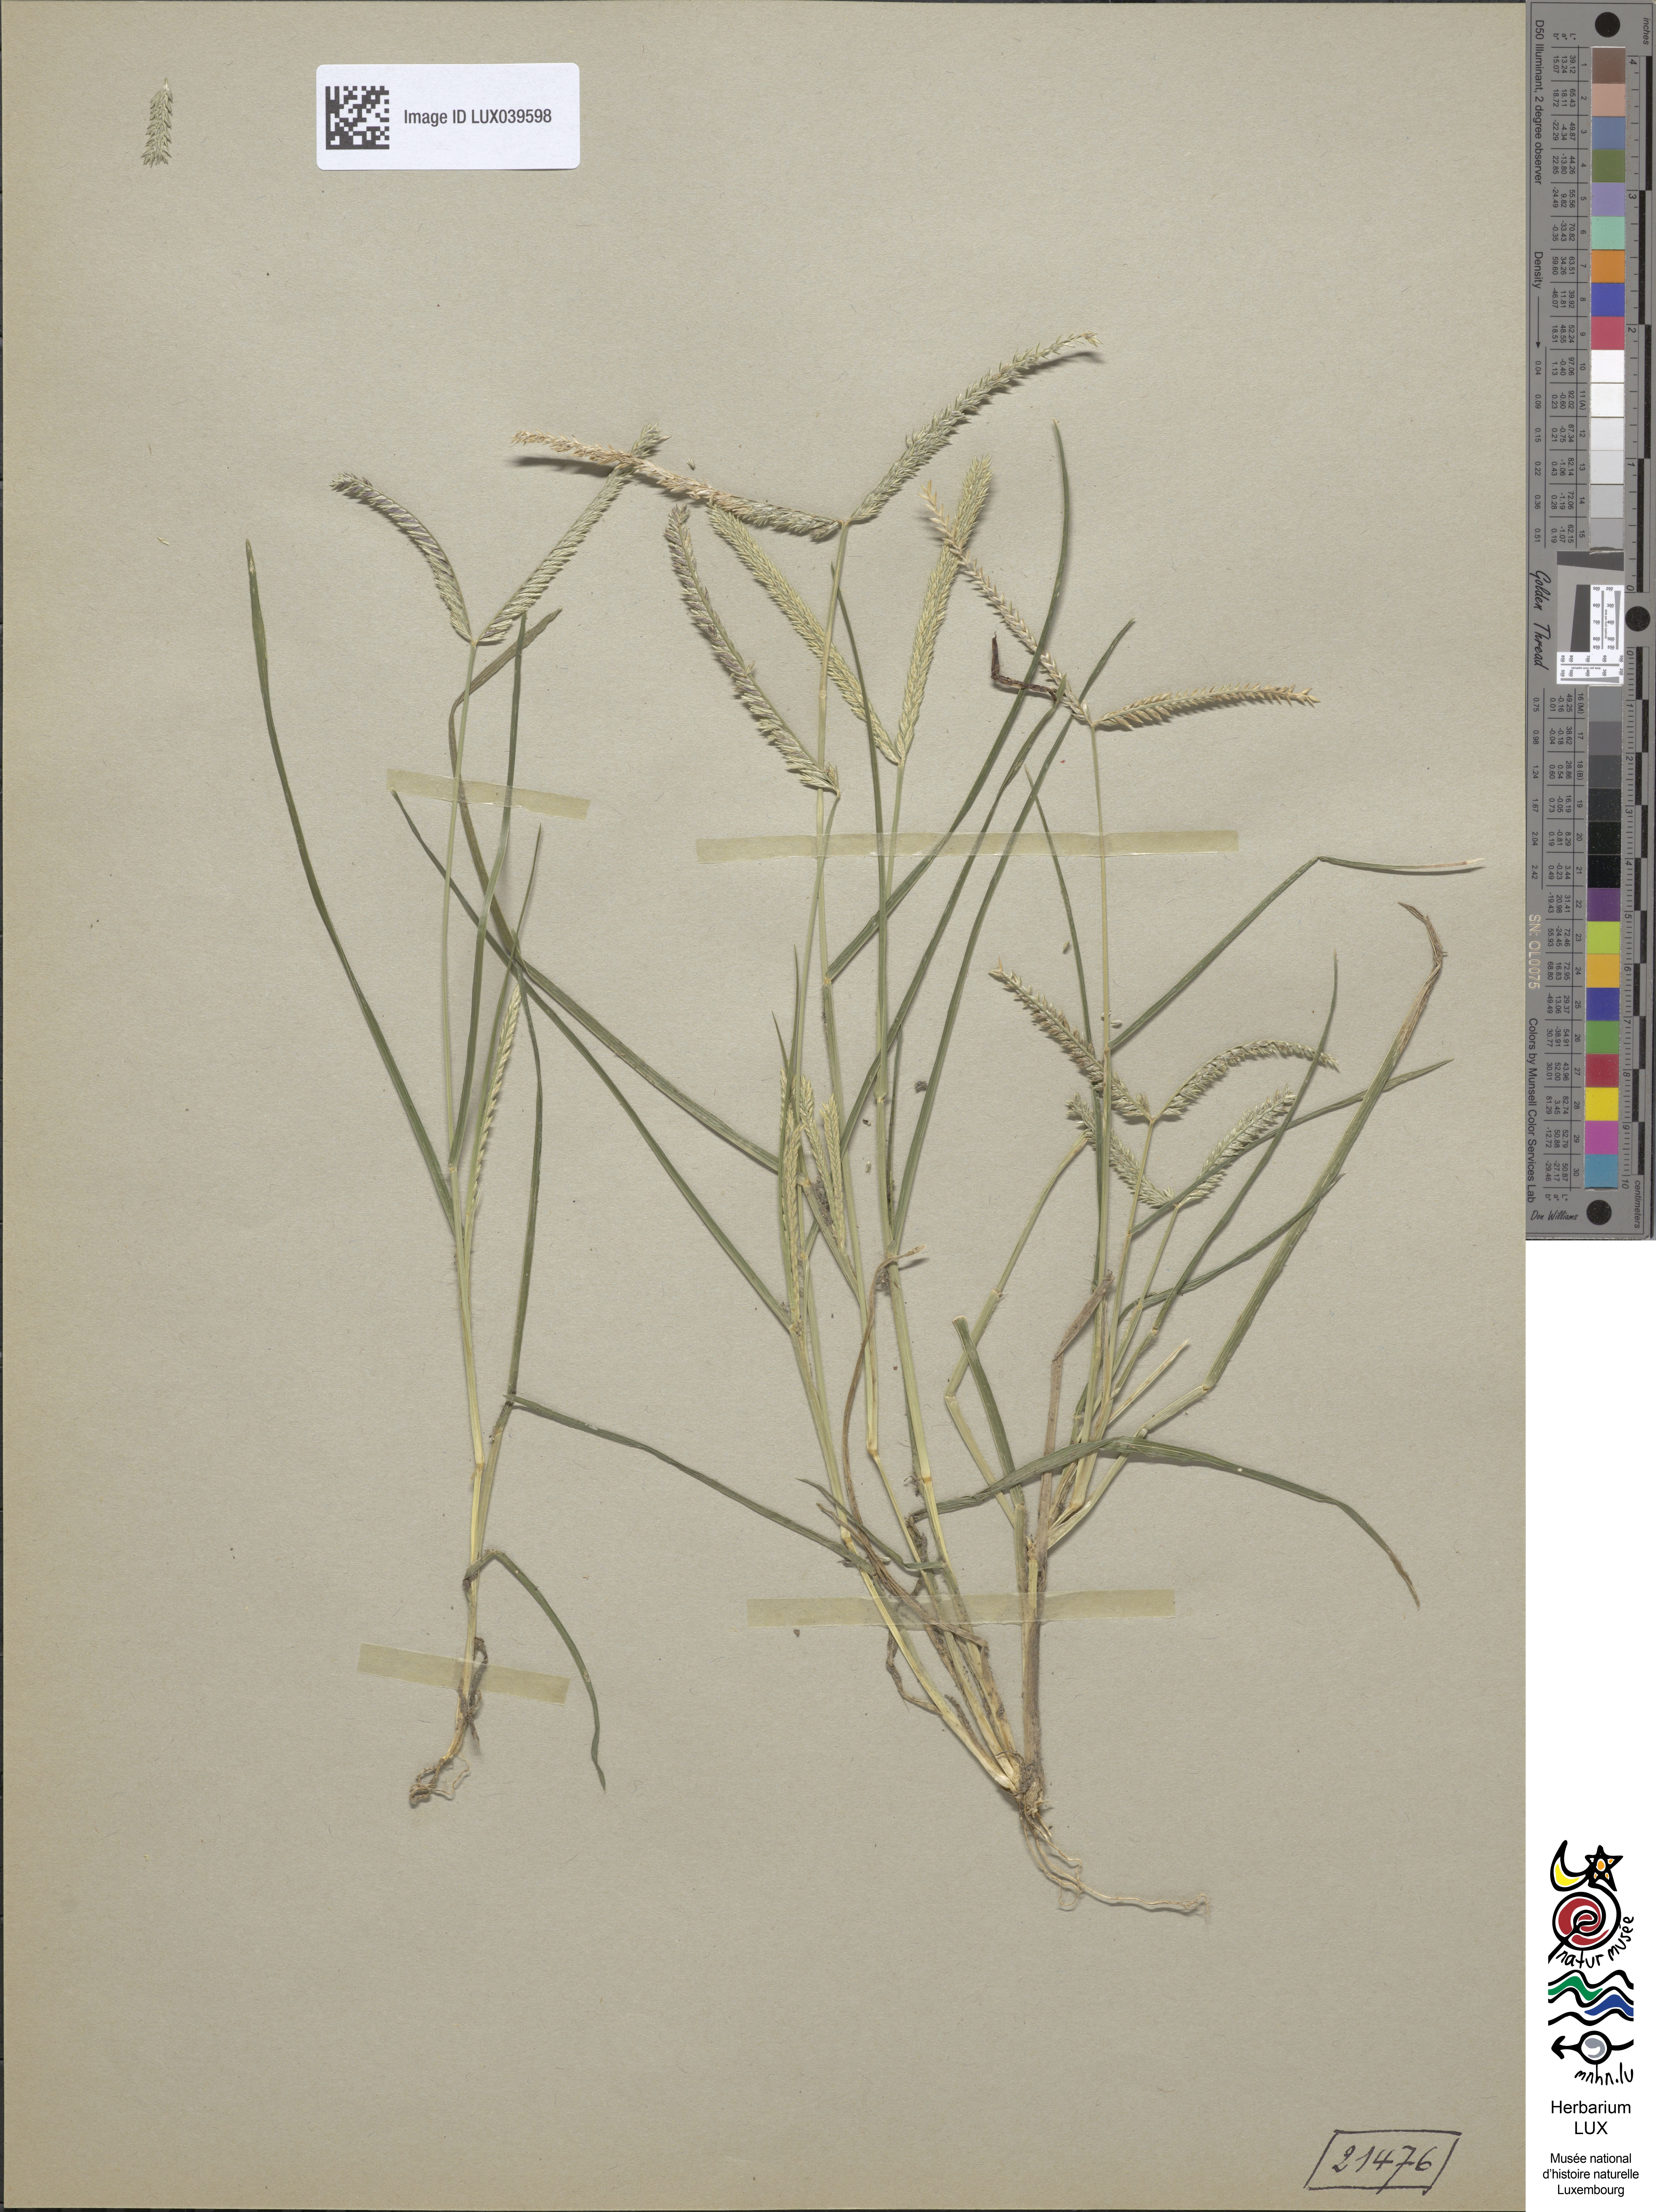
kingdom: Plantae
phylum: Tracheophyta
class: Liliopsida
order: Poales
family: Poaceae
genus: Eleusine
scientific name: Eleusine indica
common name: Yard-grass
